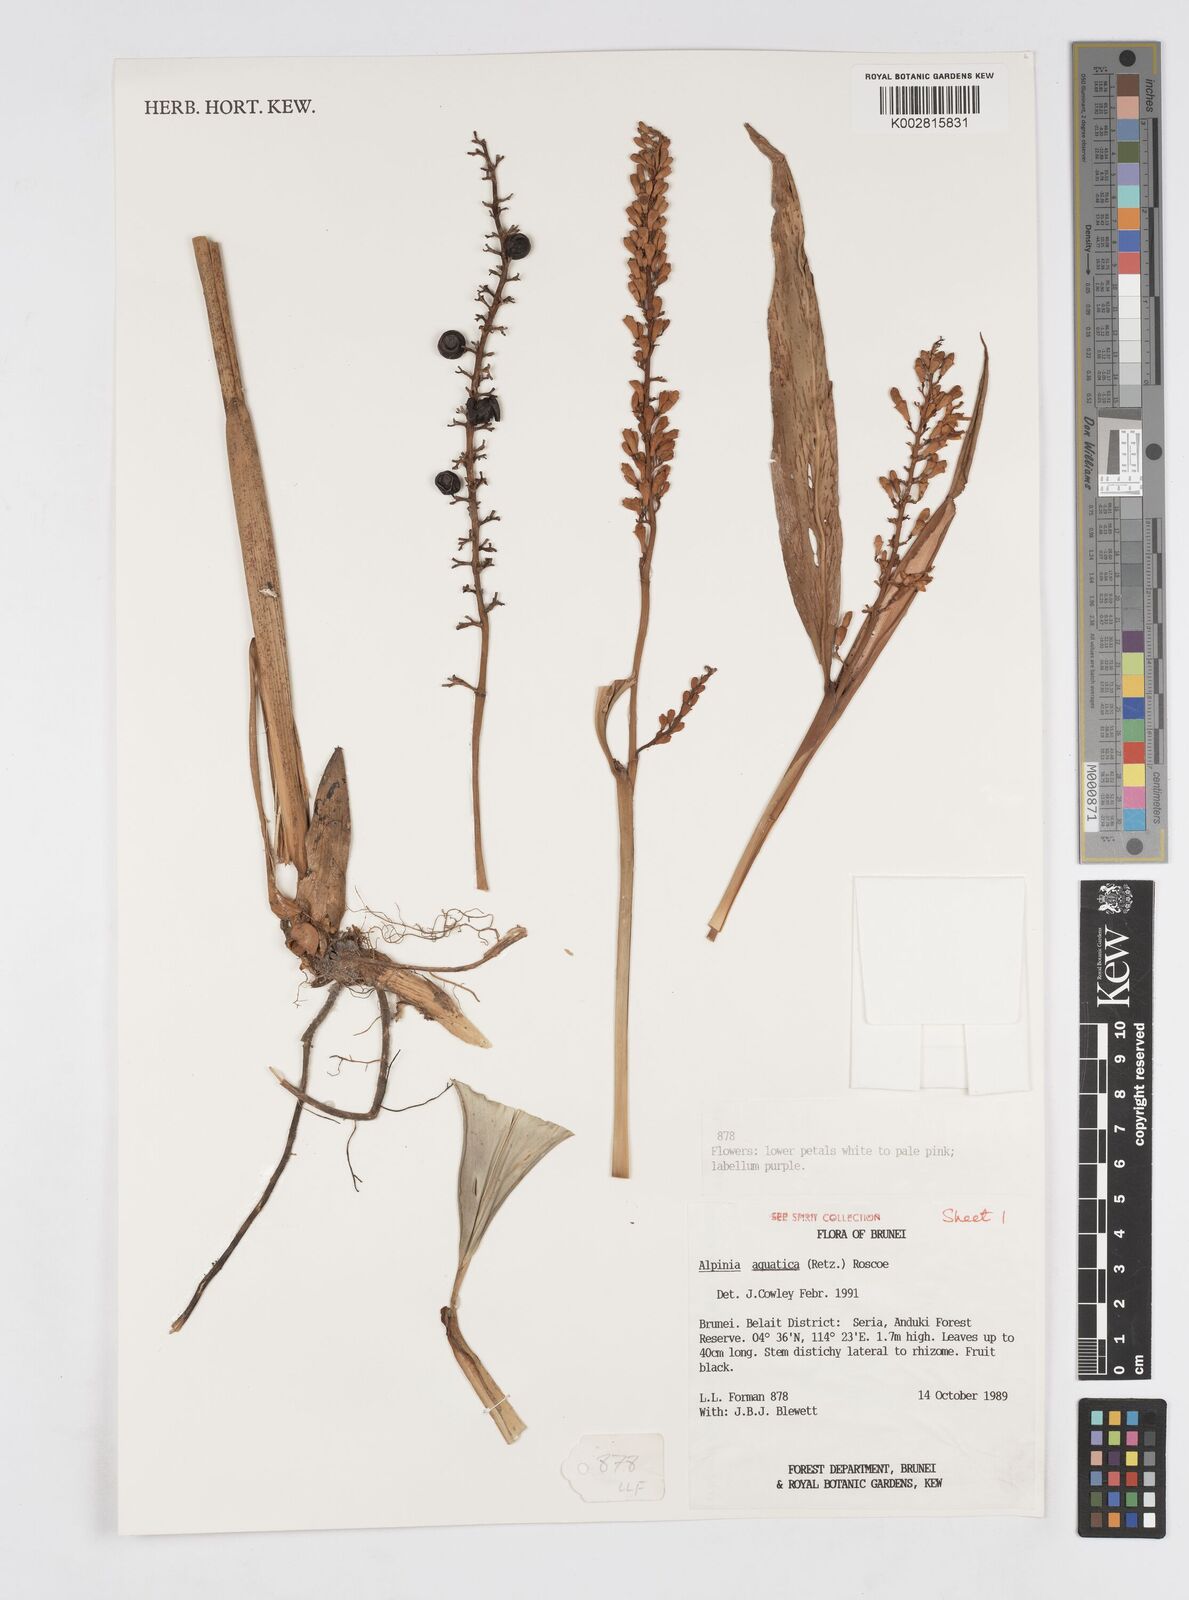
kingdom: Plantae
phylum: Tracheophyta
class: Liliopsida
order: Zingiberales
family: Zingiberaceae
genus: Alpinia
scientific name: Alpinia aquatica
